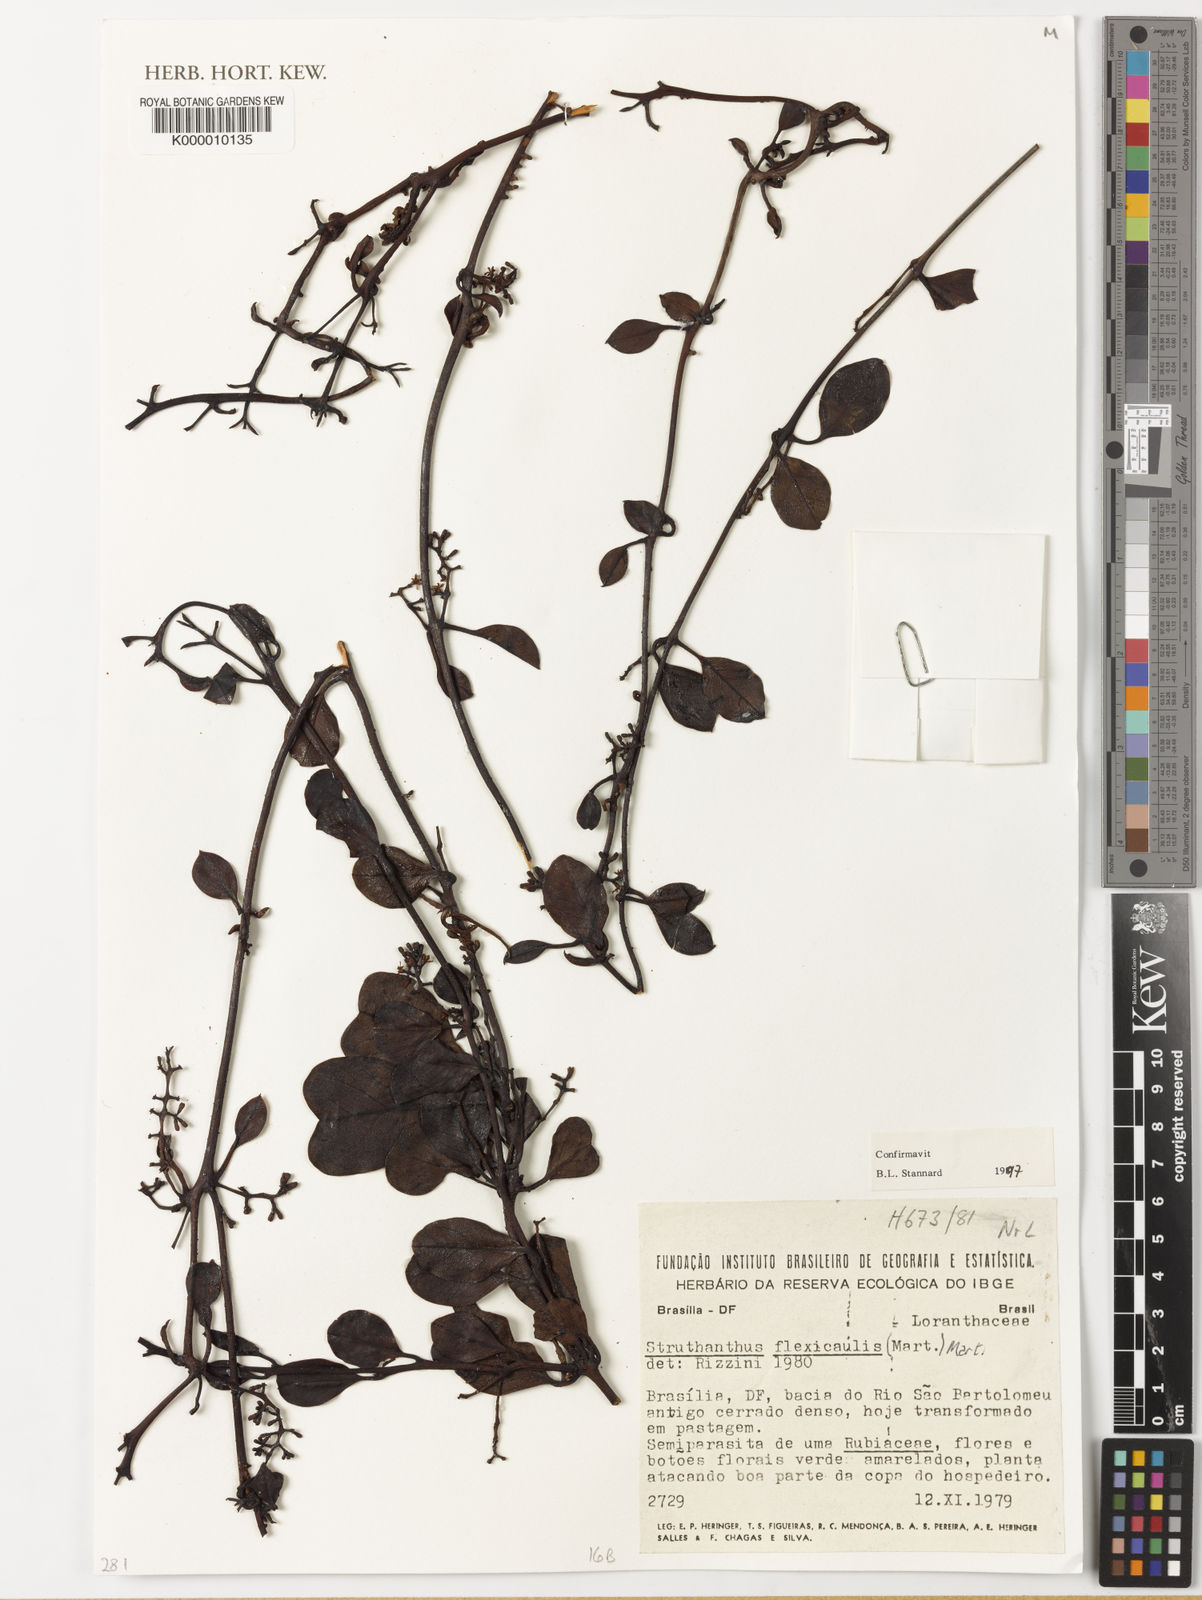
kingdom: Plantae
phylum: Tracheophyta
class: Magnoliopsida
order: Santalales
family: Loranthaceae
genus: Struthanthus
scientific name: Struthanthus flexicaulis
